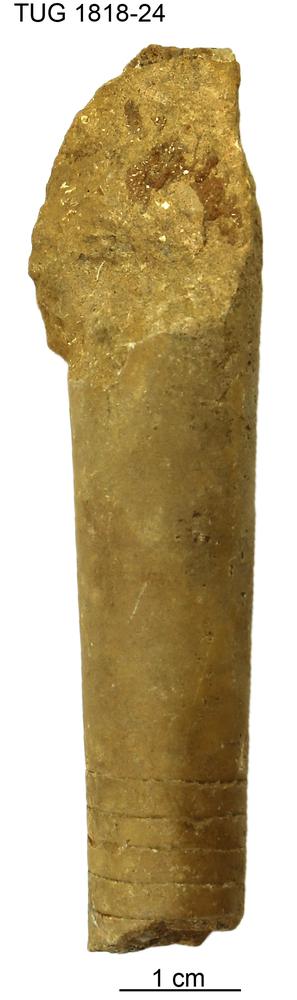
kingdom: Animalia
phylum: Mollusca
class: Cephalopoda
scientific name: Cephalopoda
